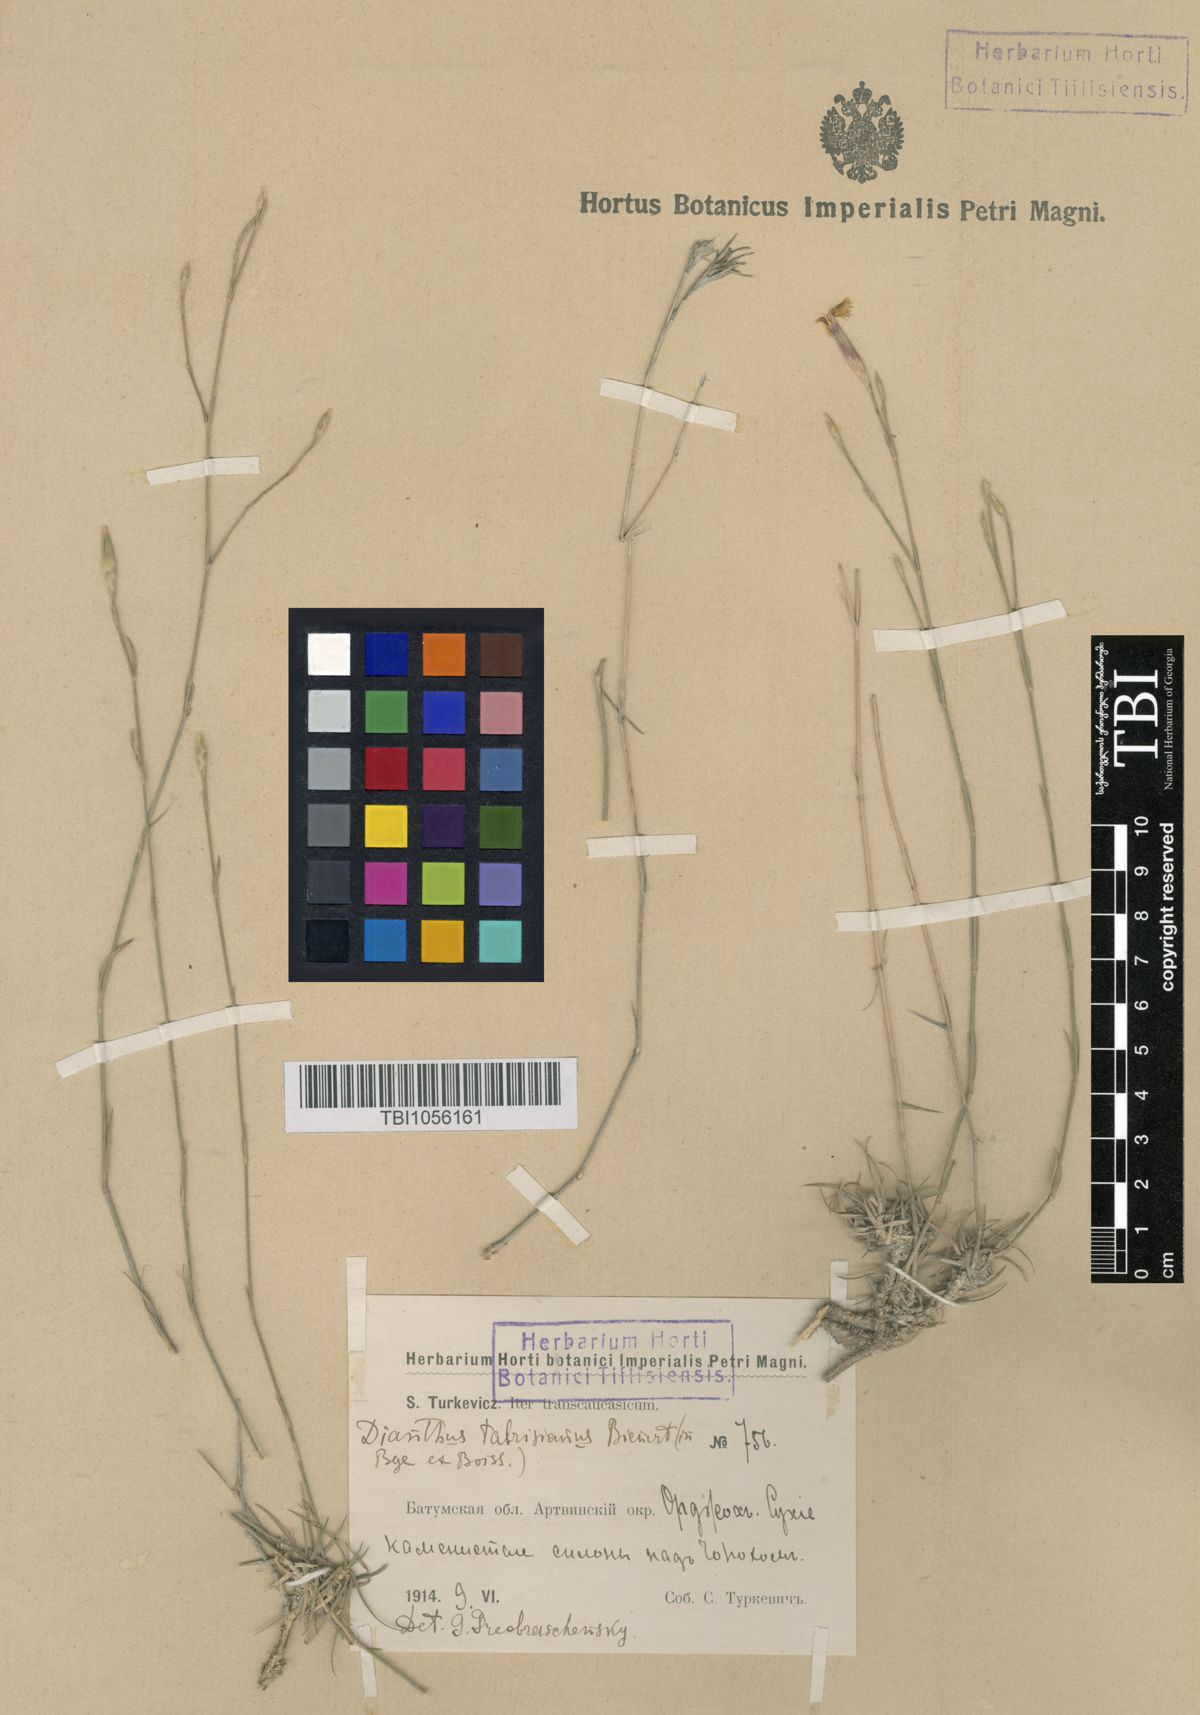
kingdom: Plantae
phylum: Tracheophyta
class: Magnoliopsida
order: Caryophyllales
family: Caryophyllaceae
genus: Dianthus
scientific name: Dianthus tabrisianus
